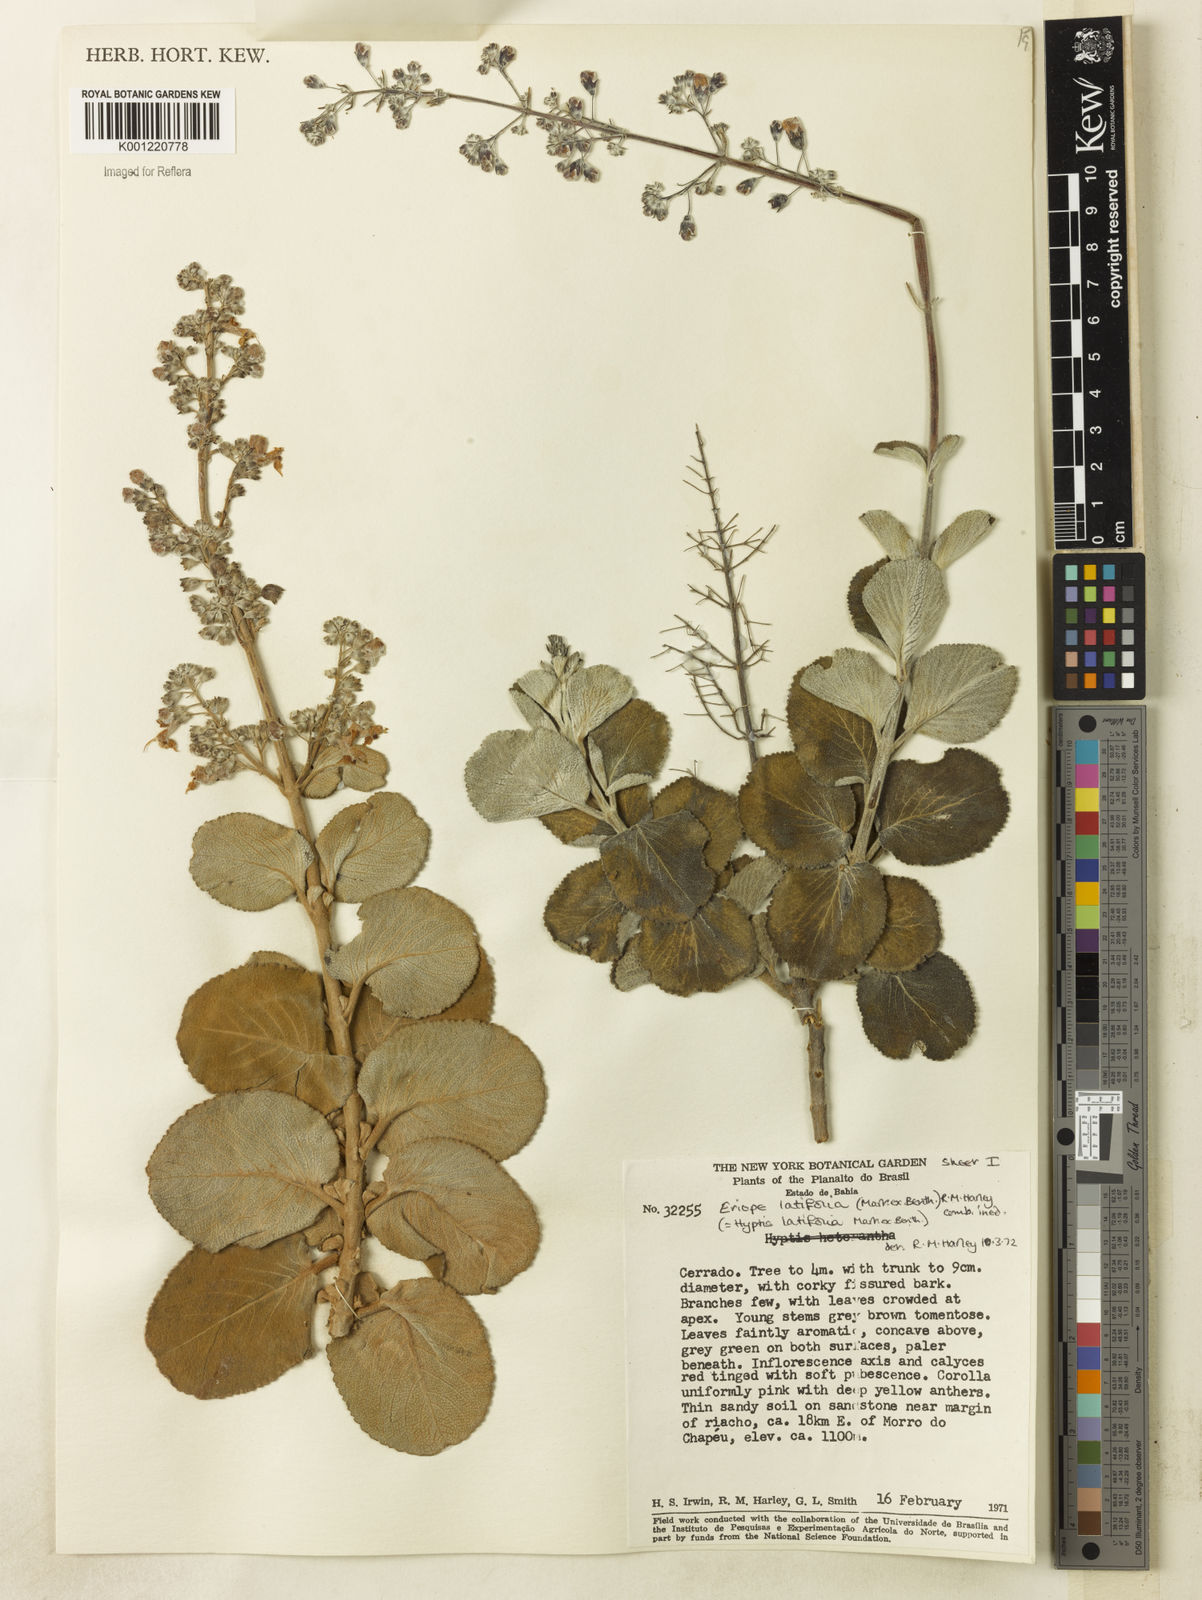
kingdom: Plantae
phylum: Tracheophyta
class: Magnoliopsida
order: Lamiales
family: Lamiaceae
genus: Eriope
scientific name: Eriope latifolia
